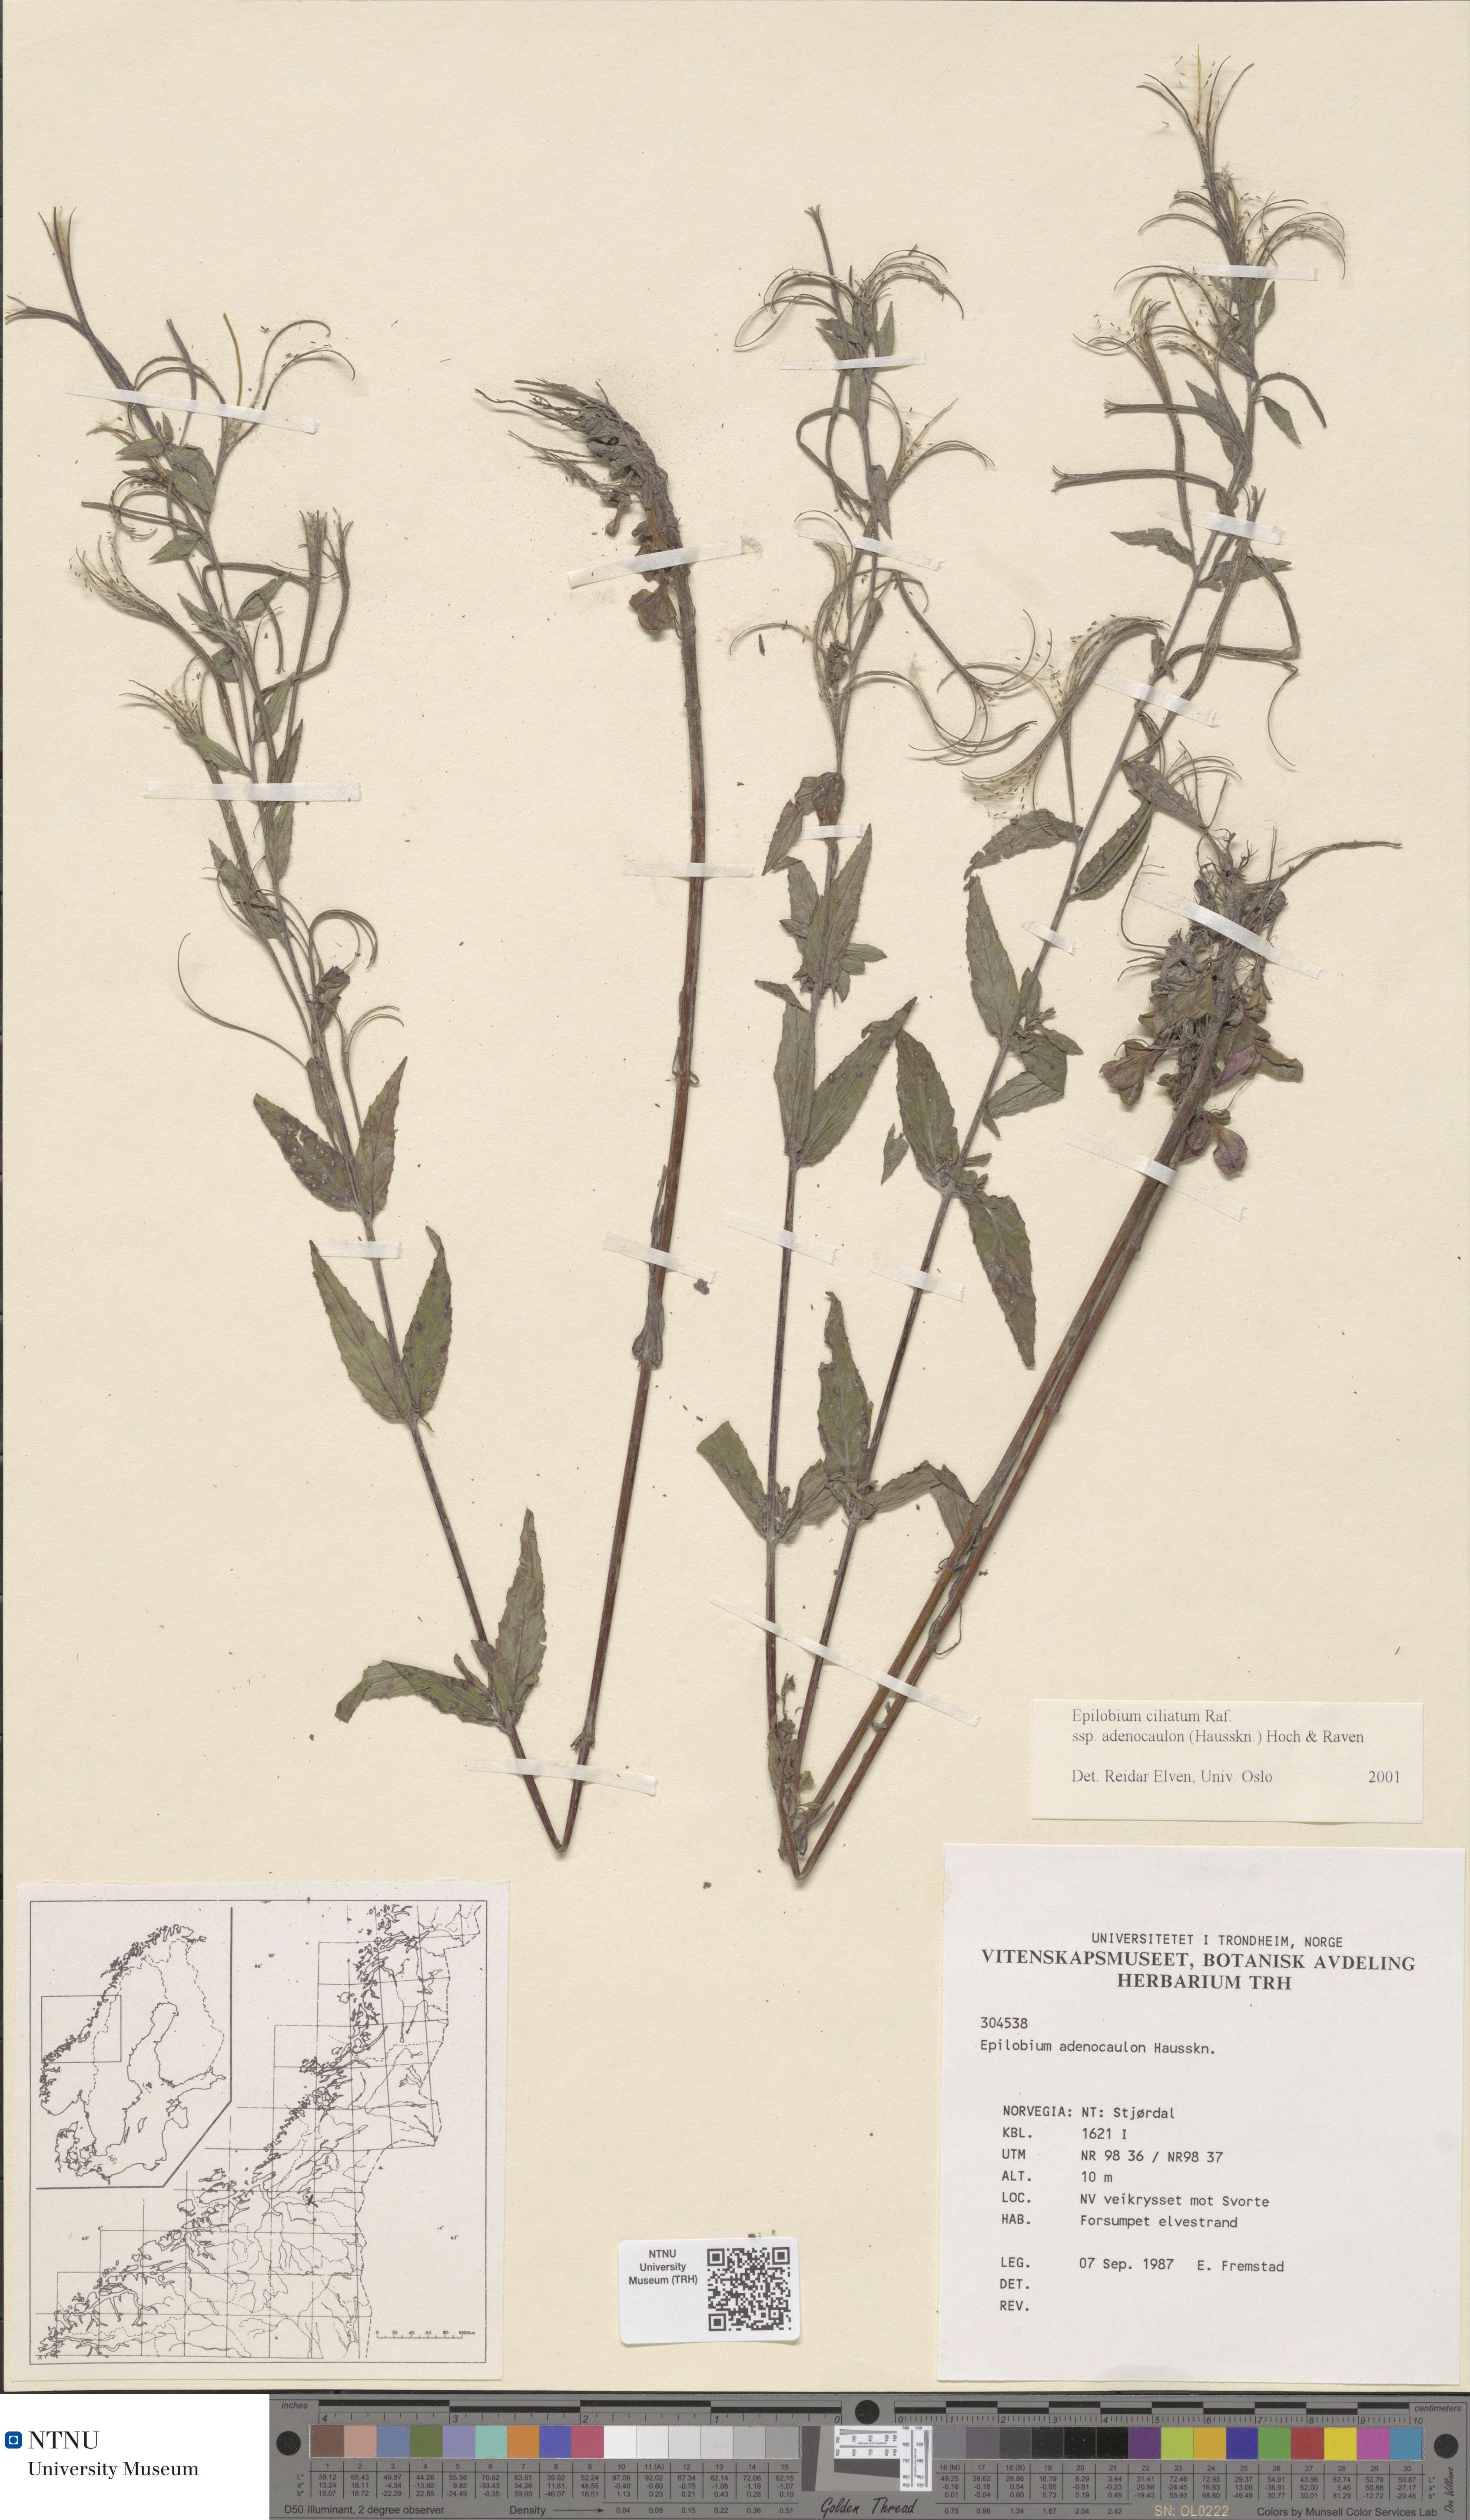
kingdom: Plantae
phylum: Tracheophyta
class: Magnoliopsida
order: Myrtales
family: Onagraceae
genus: Epilobium
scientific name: Epilobium ciliatum
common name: American willowherb
